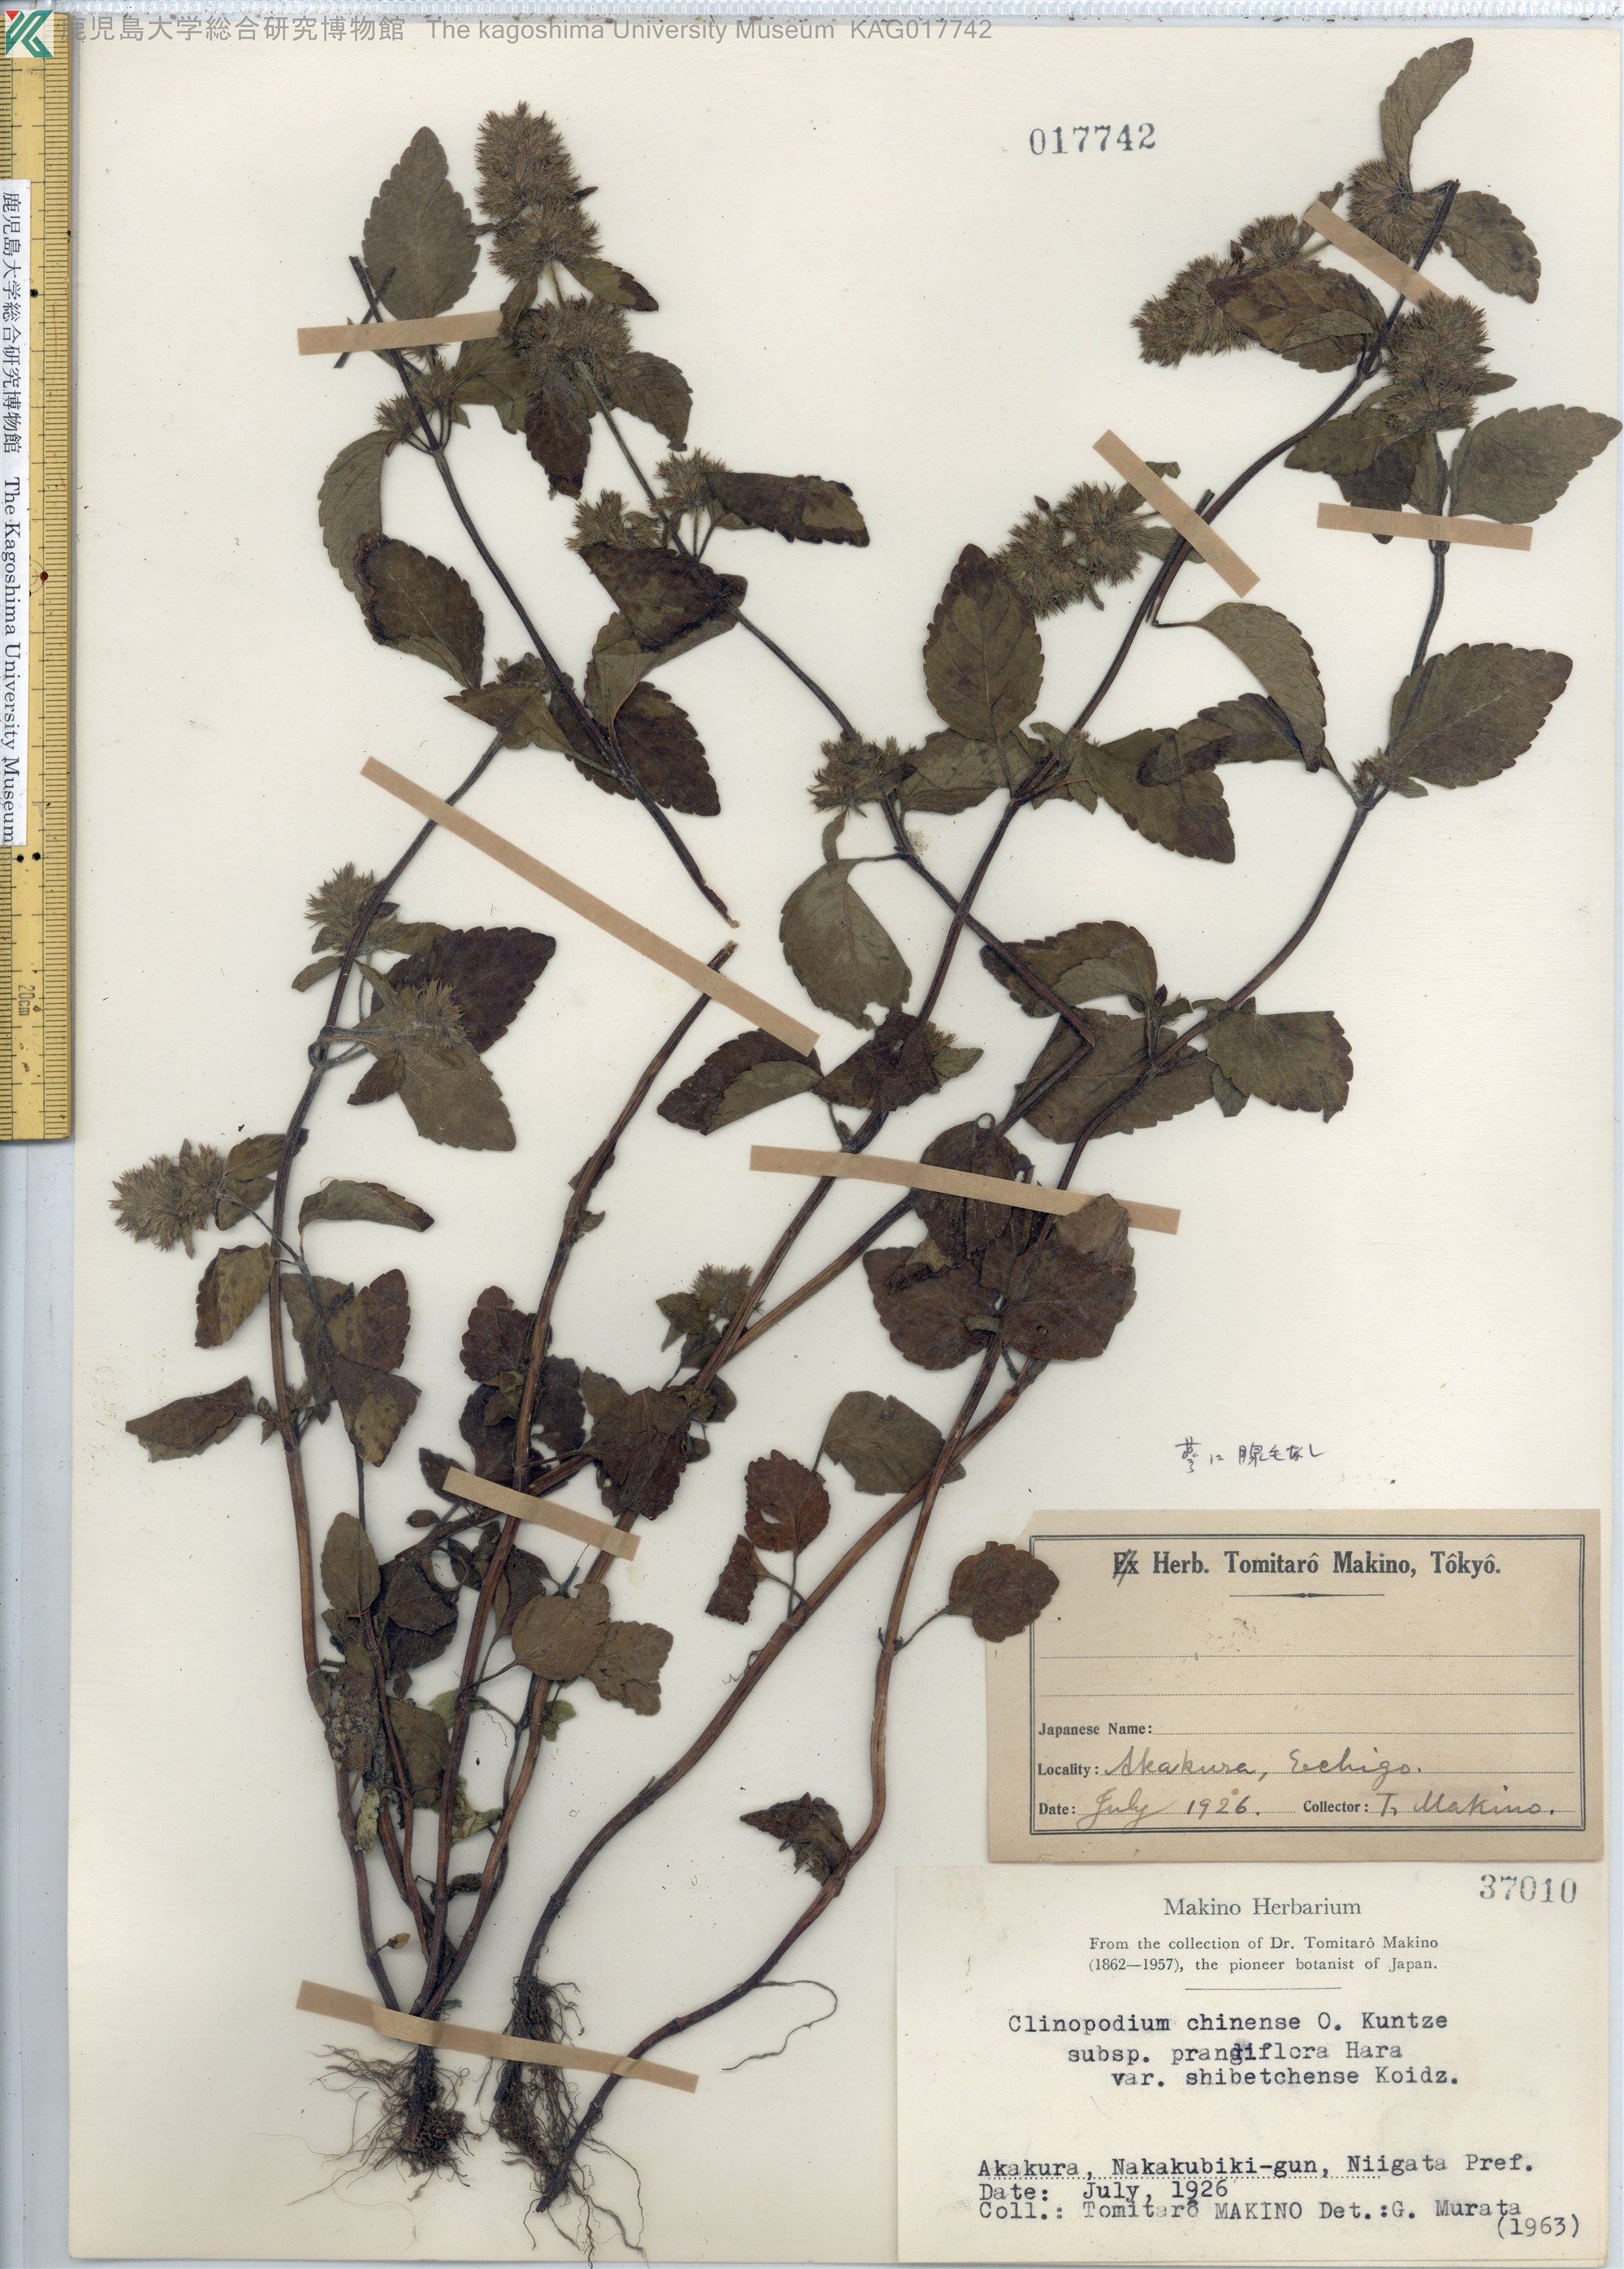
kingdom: Plantae
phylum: Tracheophyta
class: Magnoliopsida
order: Lamiales
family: Lamiaceae
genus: Clinopodium
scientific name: Clinopodium multicaule
